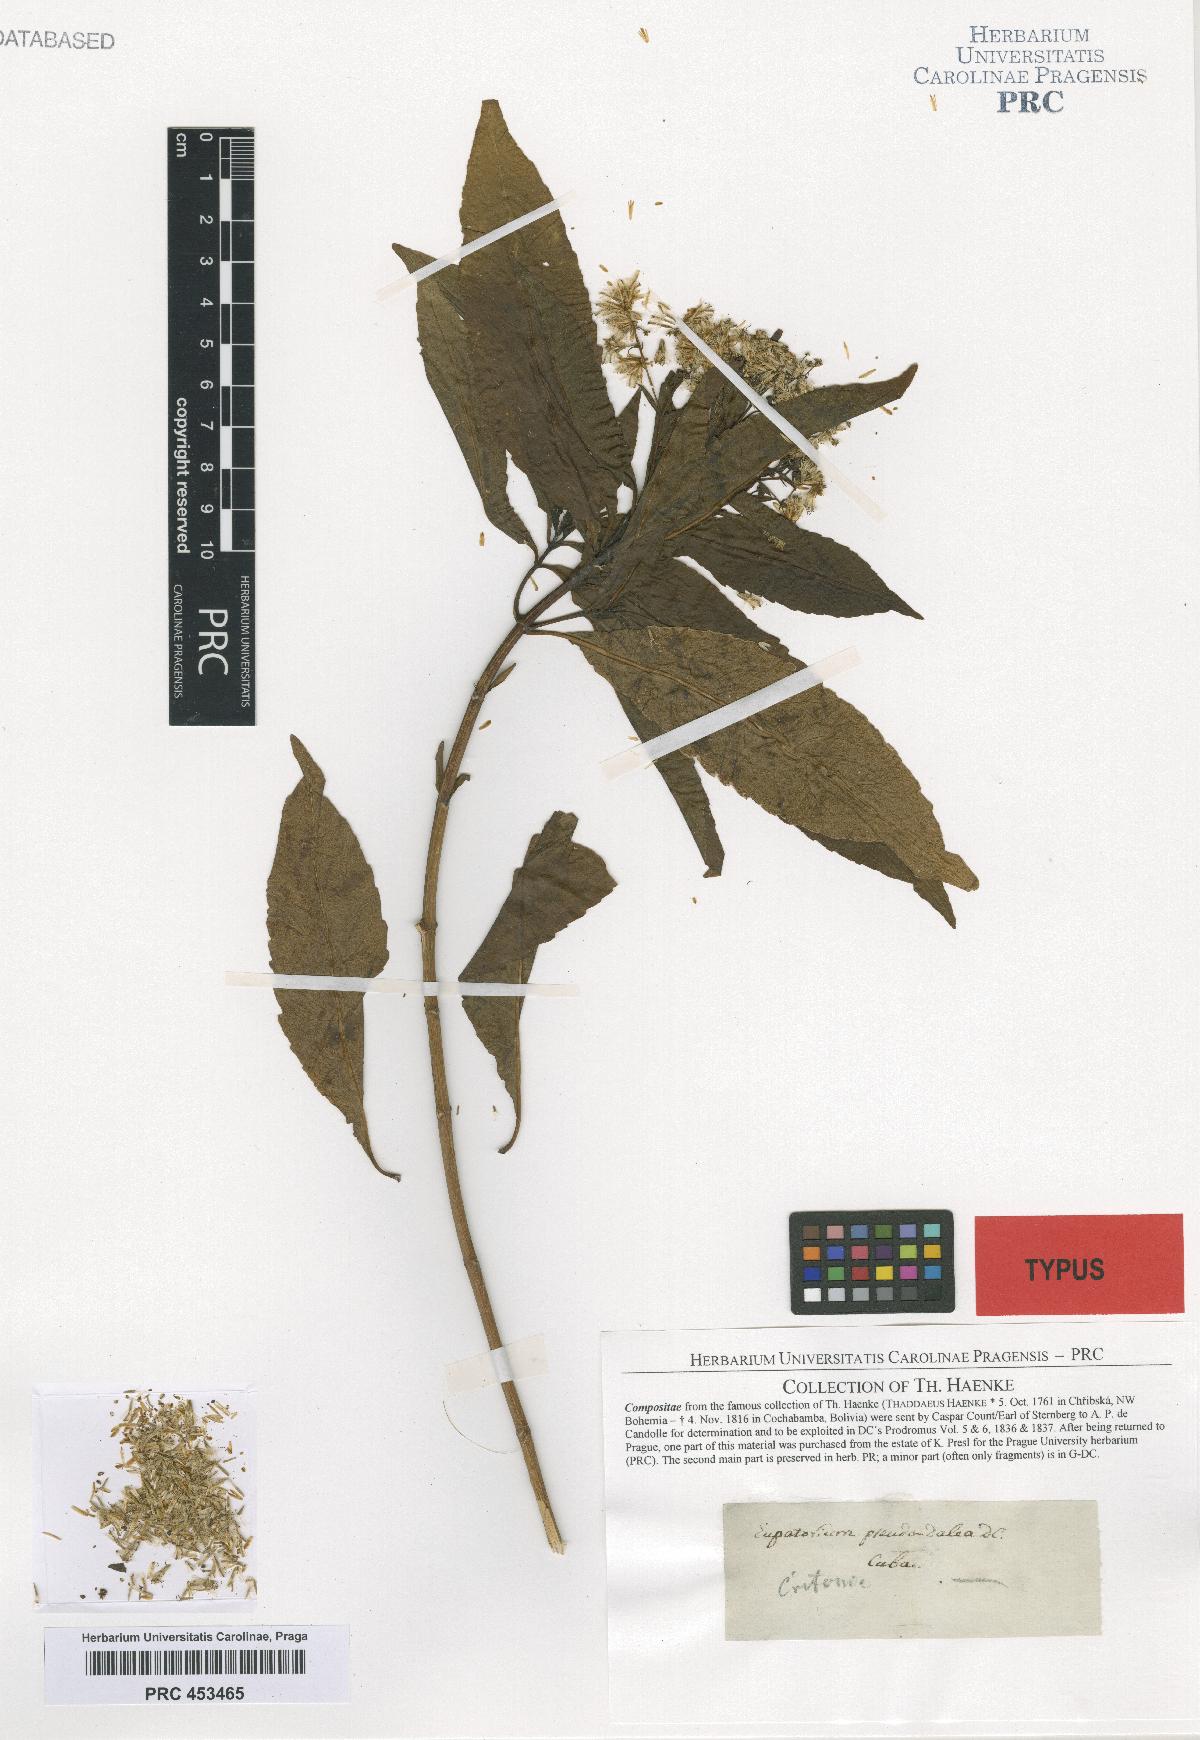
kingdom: Plantae
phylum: Tracheophyta
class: Magnoliopsida
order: Asterales
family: Asteraceae
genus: Critonia
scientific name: Critonia pseudodalea
